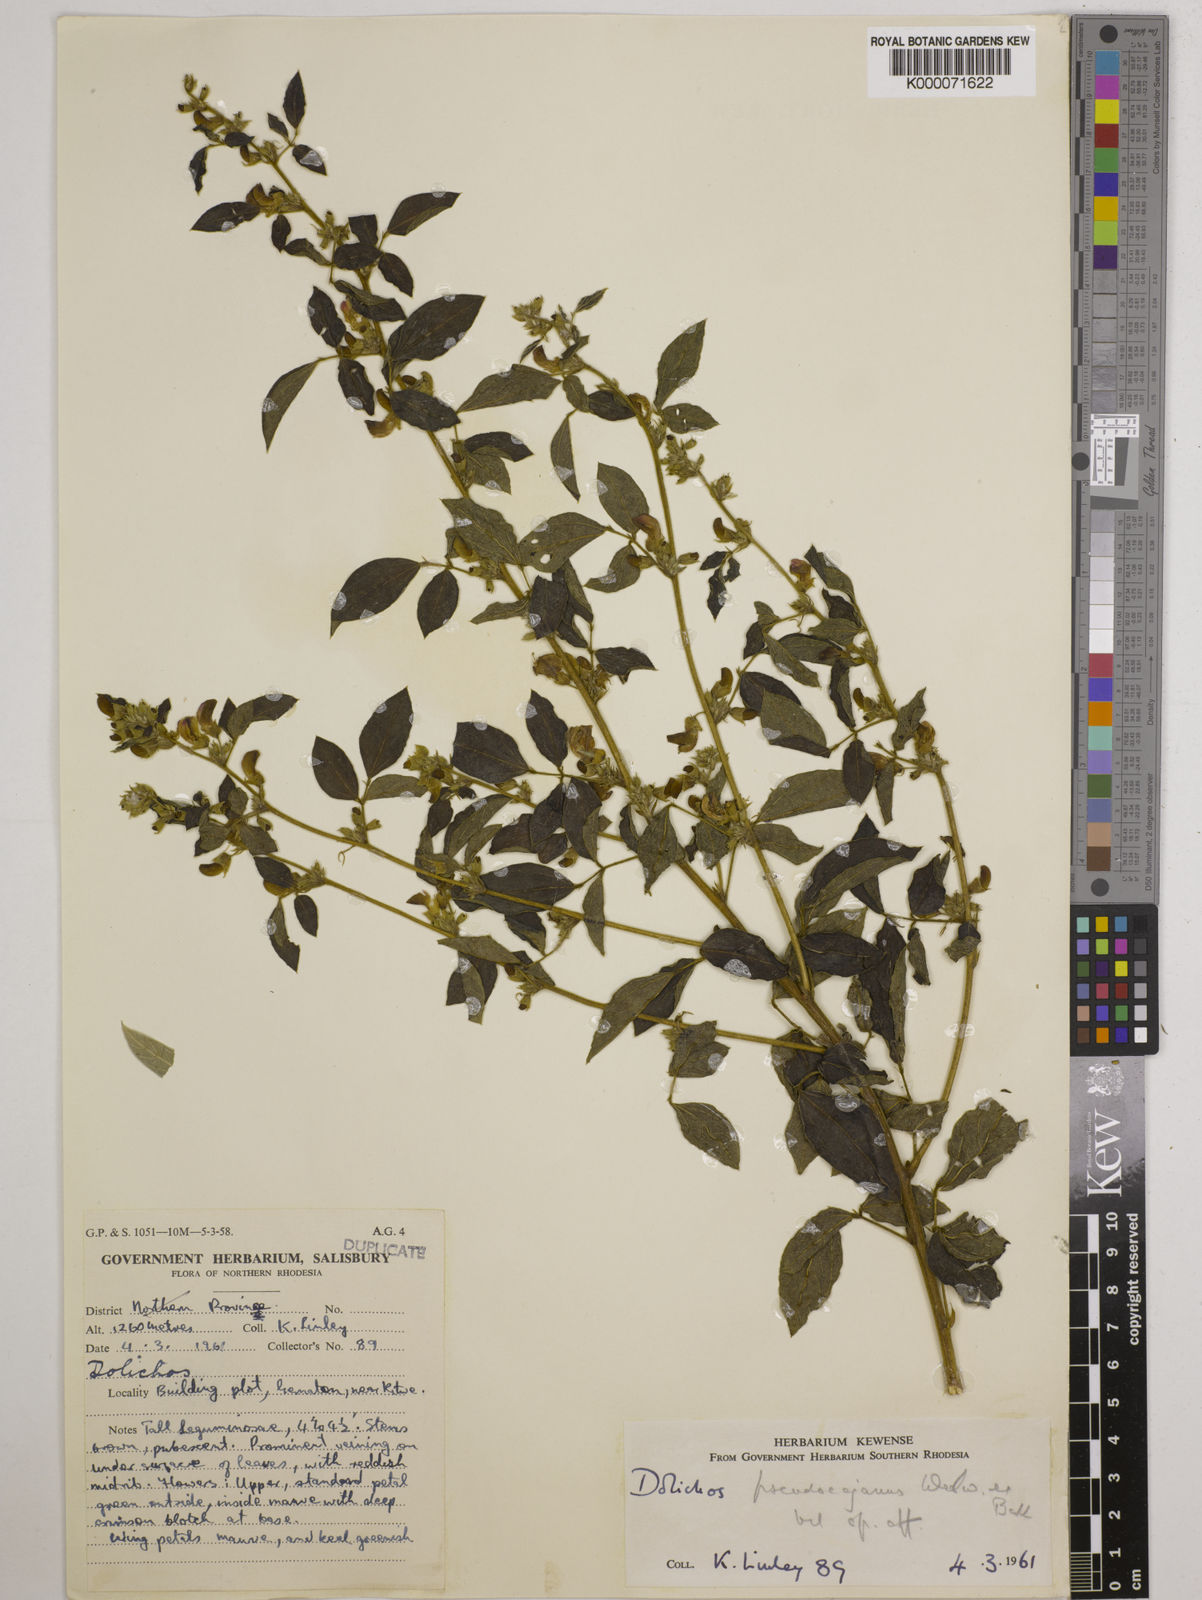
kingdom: Plantae
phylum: Tracheophyta
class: Magnoliopsida
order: Fabales
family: Fabaceae
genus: Dolichos
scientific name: Dolichos brevidentatus
